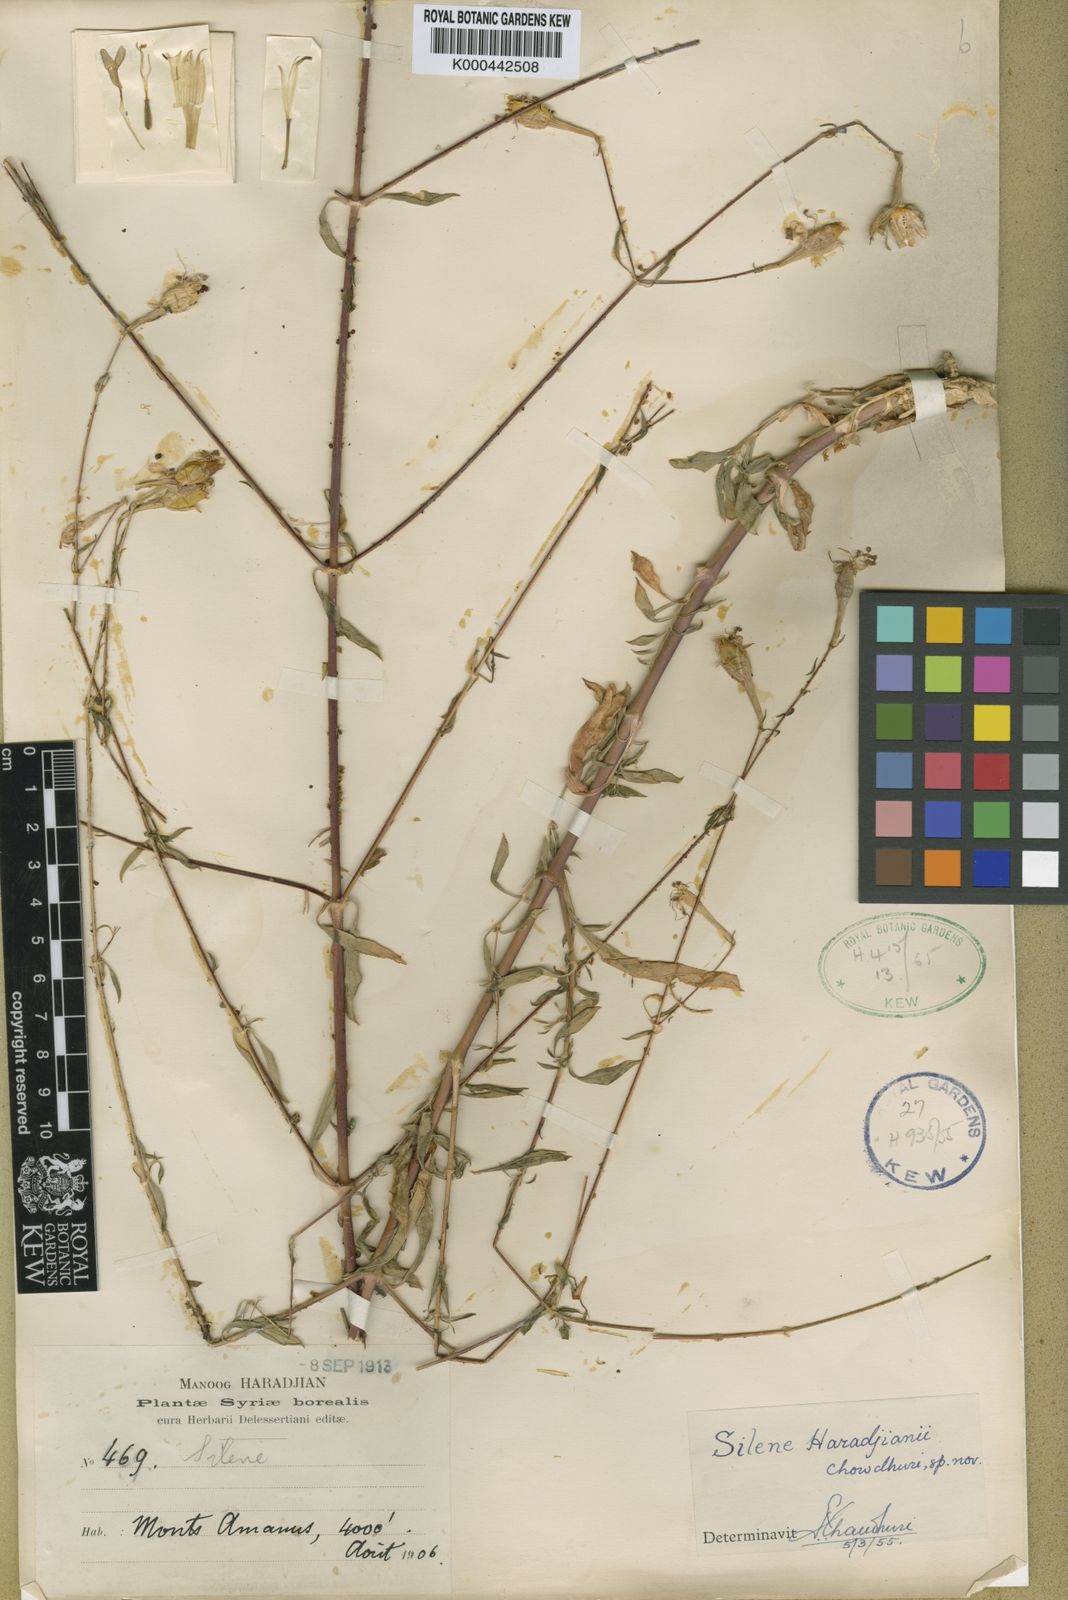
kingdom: Plantae
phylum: Tracheophyta
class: Magnoliopsida
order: Caryophyllales
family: Caryophyllaceae
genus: Silene
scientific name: Silene haradjianii
